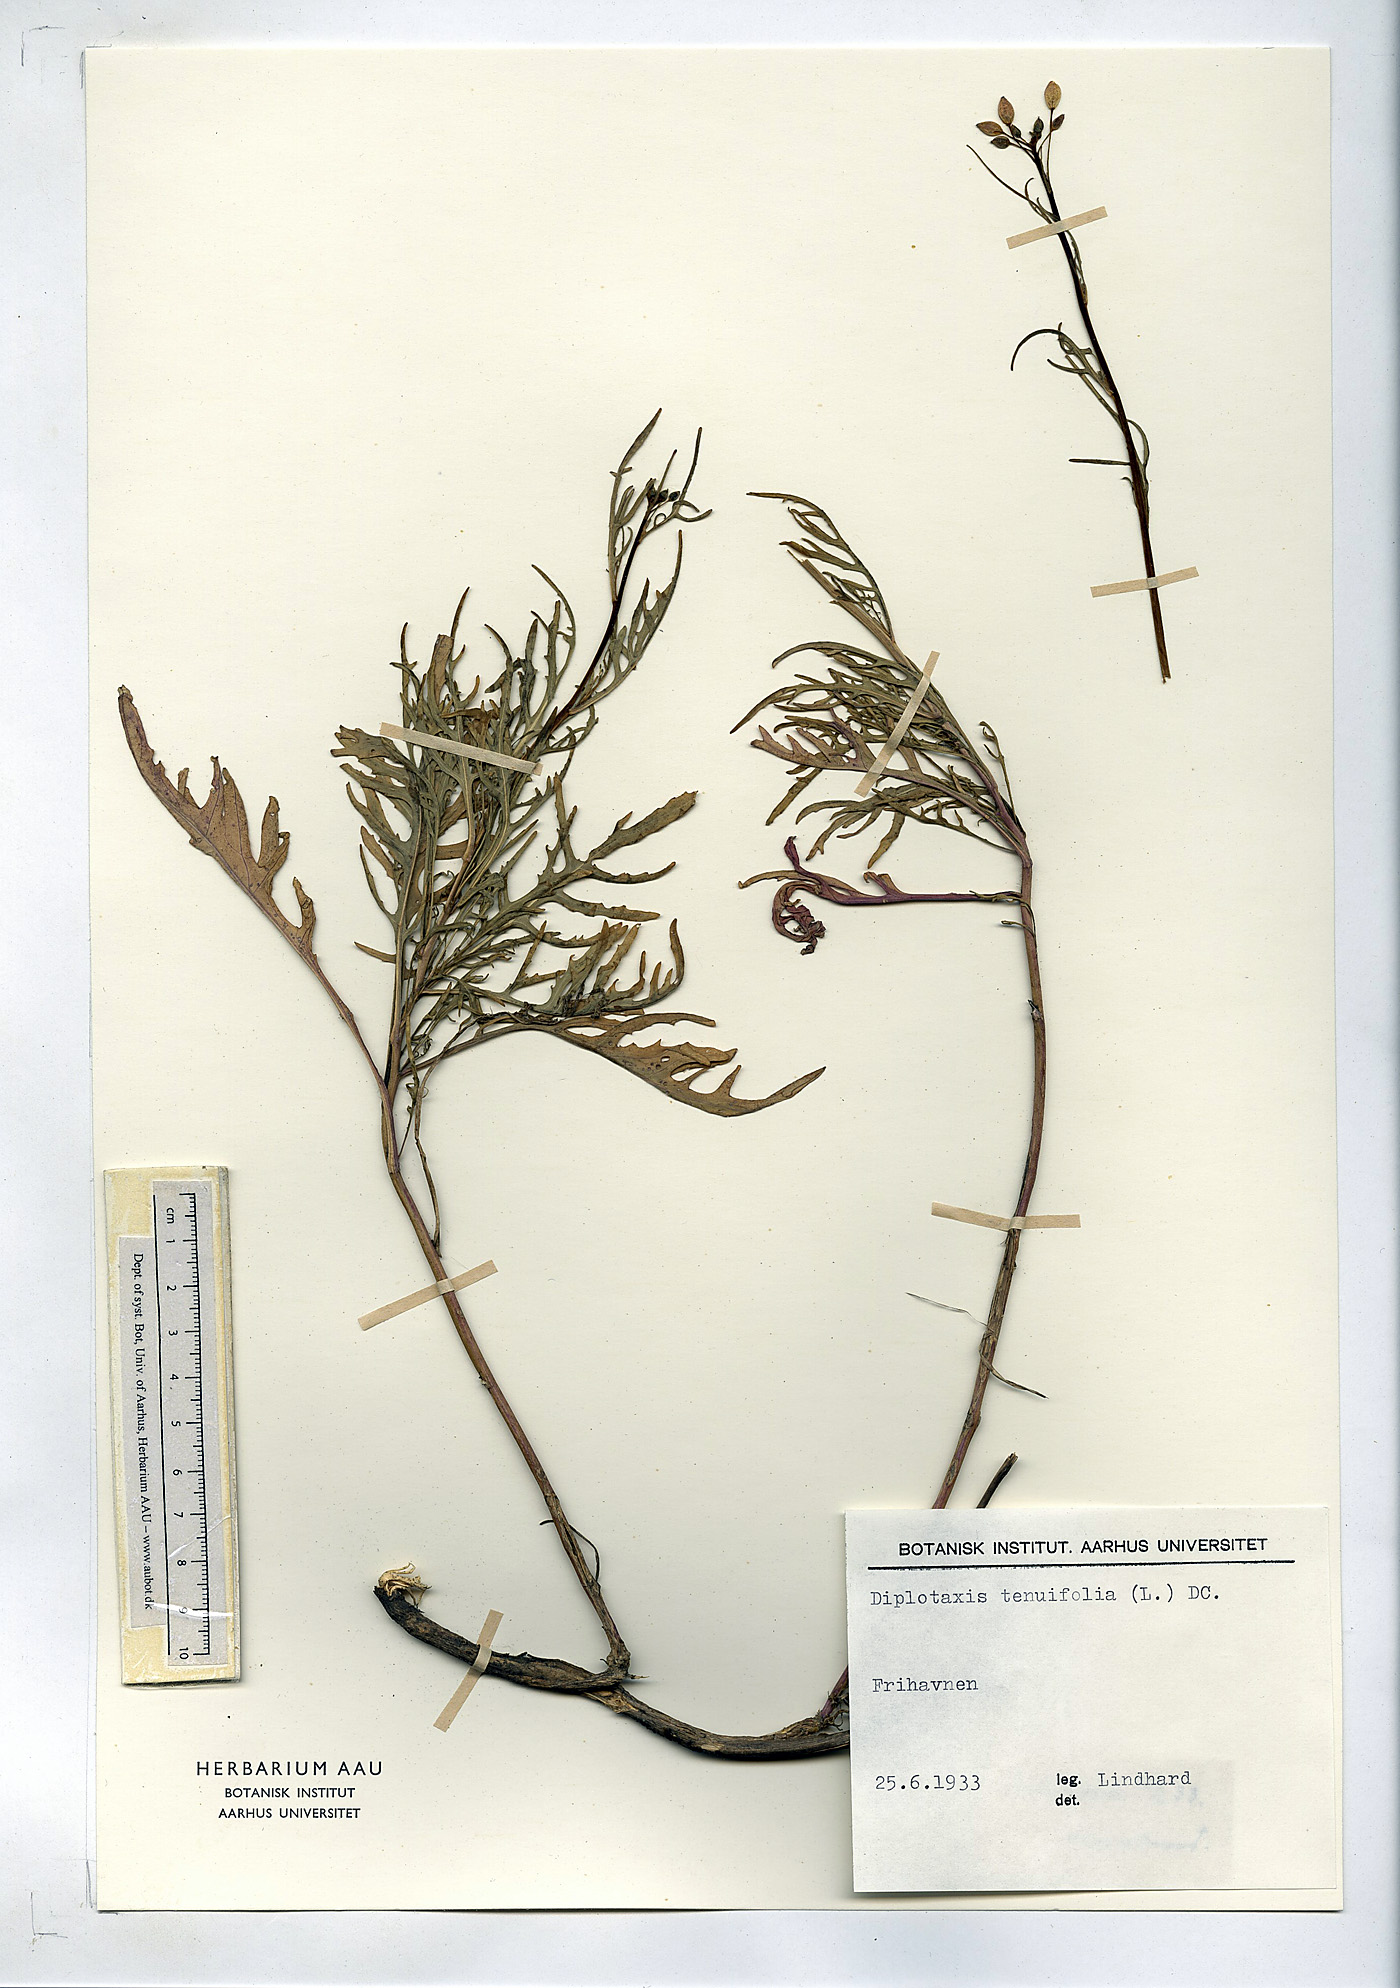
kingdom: Plantae
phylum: Tracheophyta
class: Magnoliopsida
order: Brassicales
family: Brassicaceae
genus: Diplotaxis
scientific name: Diplotaxis tenuifolia
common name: Perennial wall-rocket
